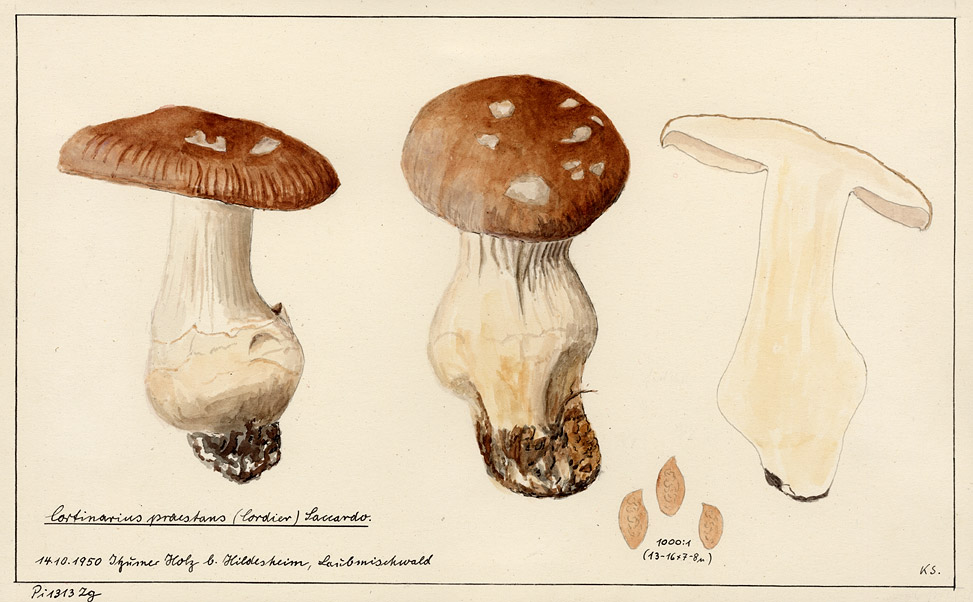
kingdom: Fungi
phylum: Basidiomycota
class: Agaricomycetes
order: Agaricales
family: Cortinariaceae
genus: Cortinarius
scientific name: Cortinarius praestans
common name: Goliath webcap
